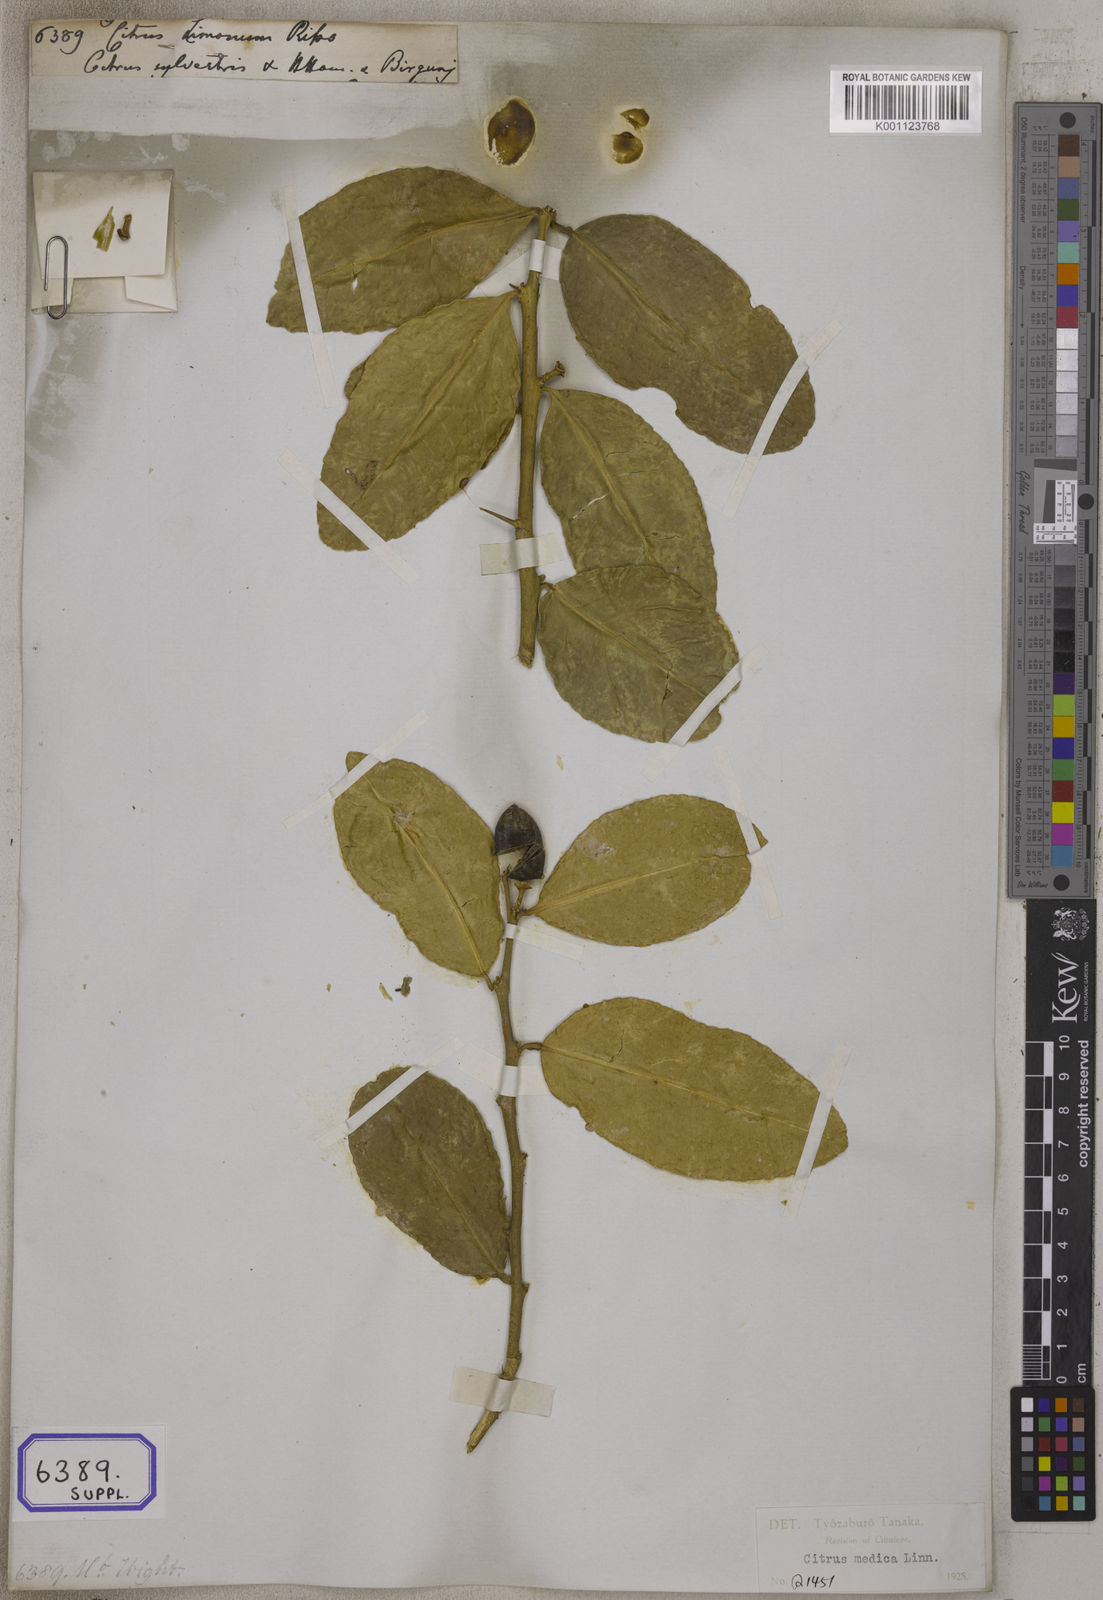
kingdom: Plantae
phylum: Tracheophyta
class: Magnoliopsida
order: Sapindales
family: Rutaceae
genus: Citrus
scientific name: Citrus limon
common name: Lemon
